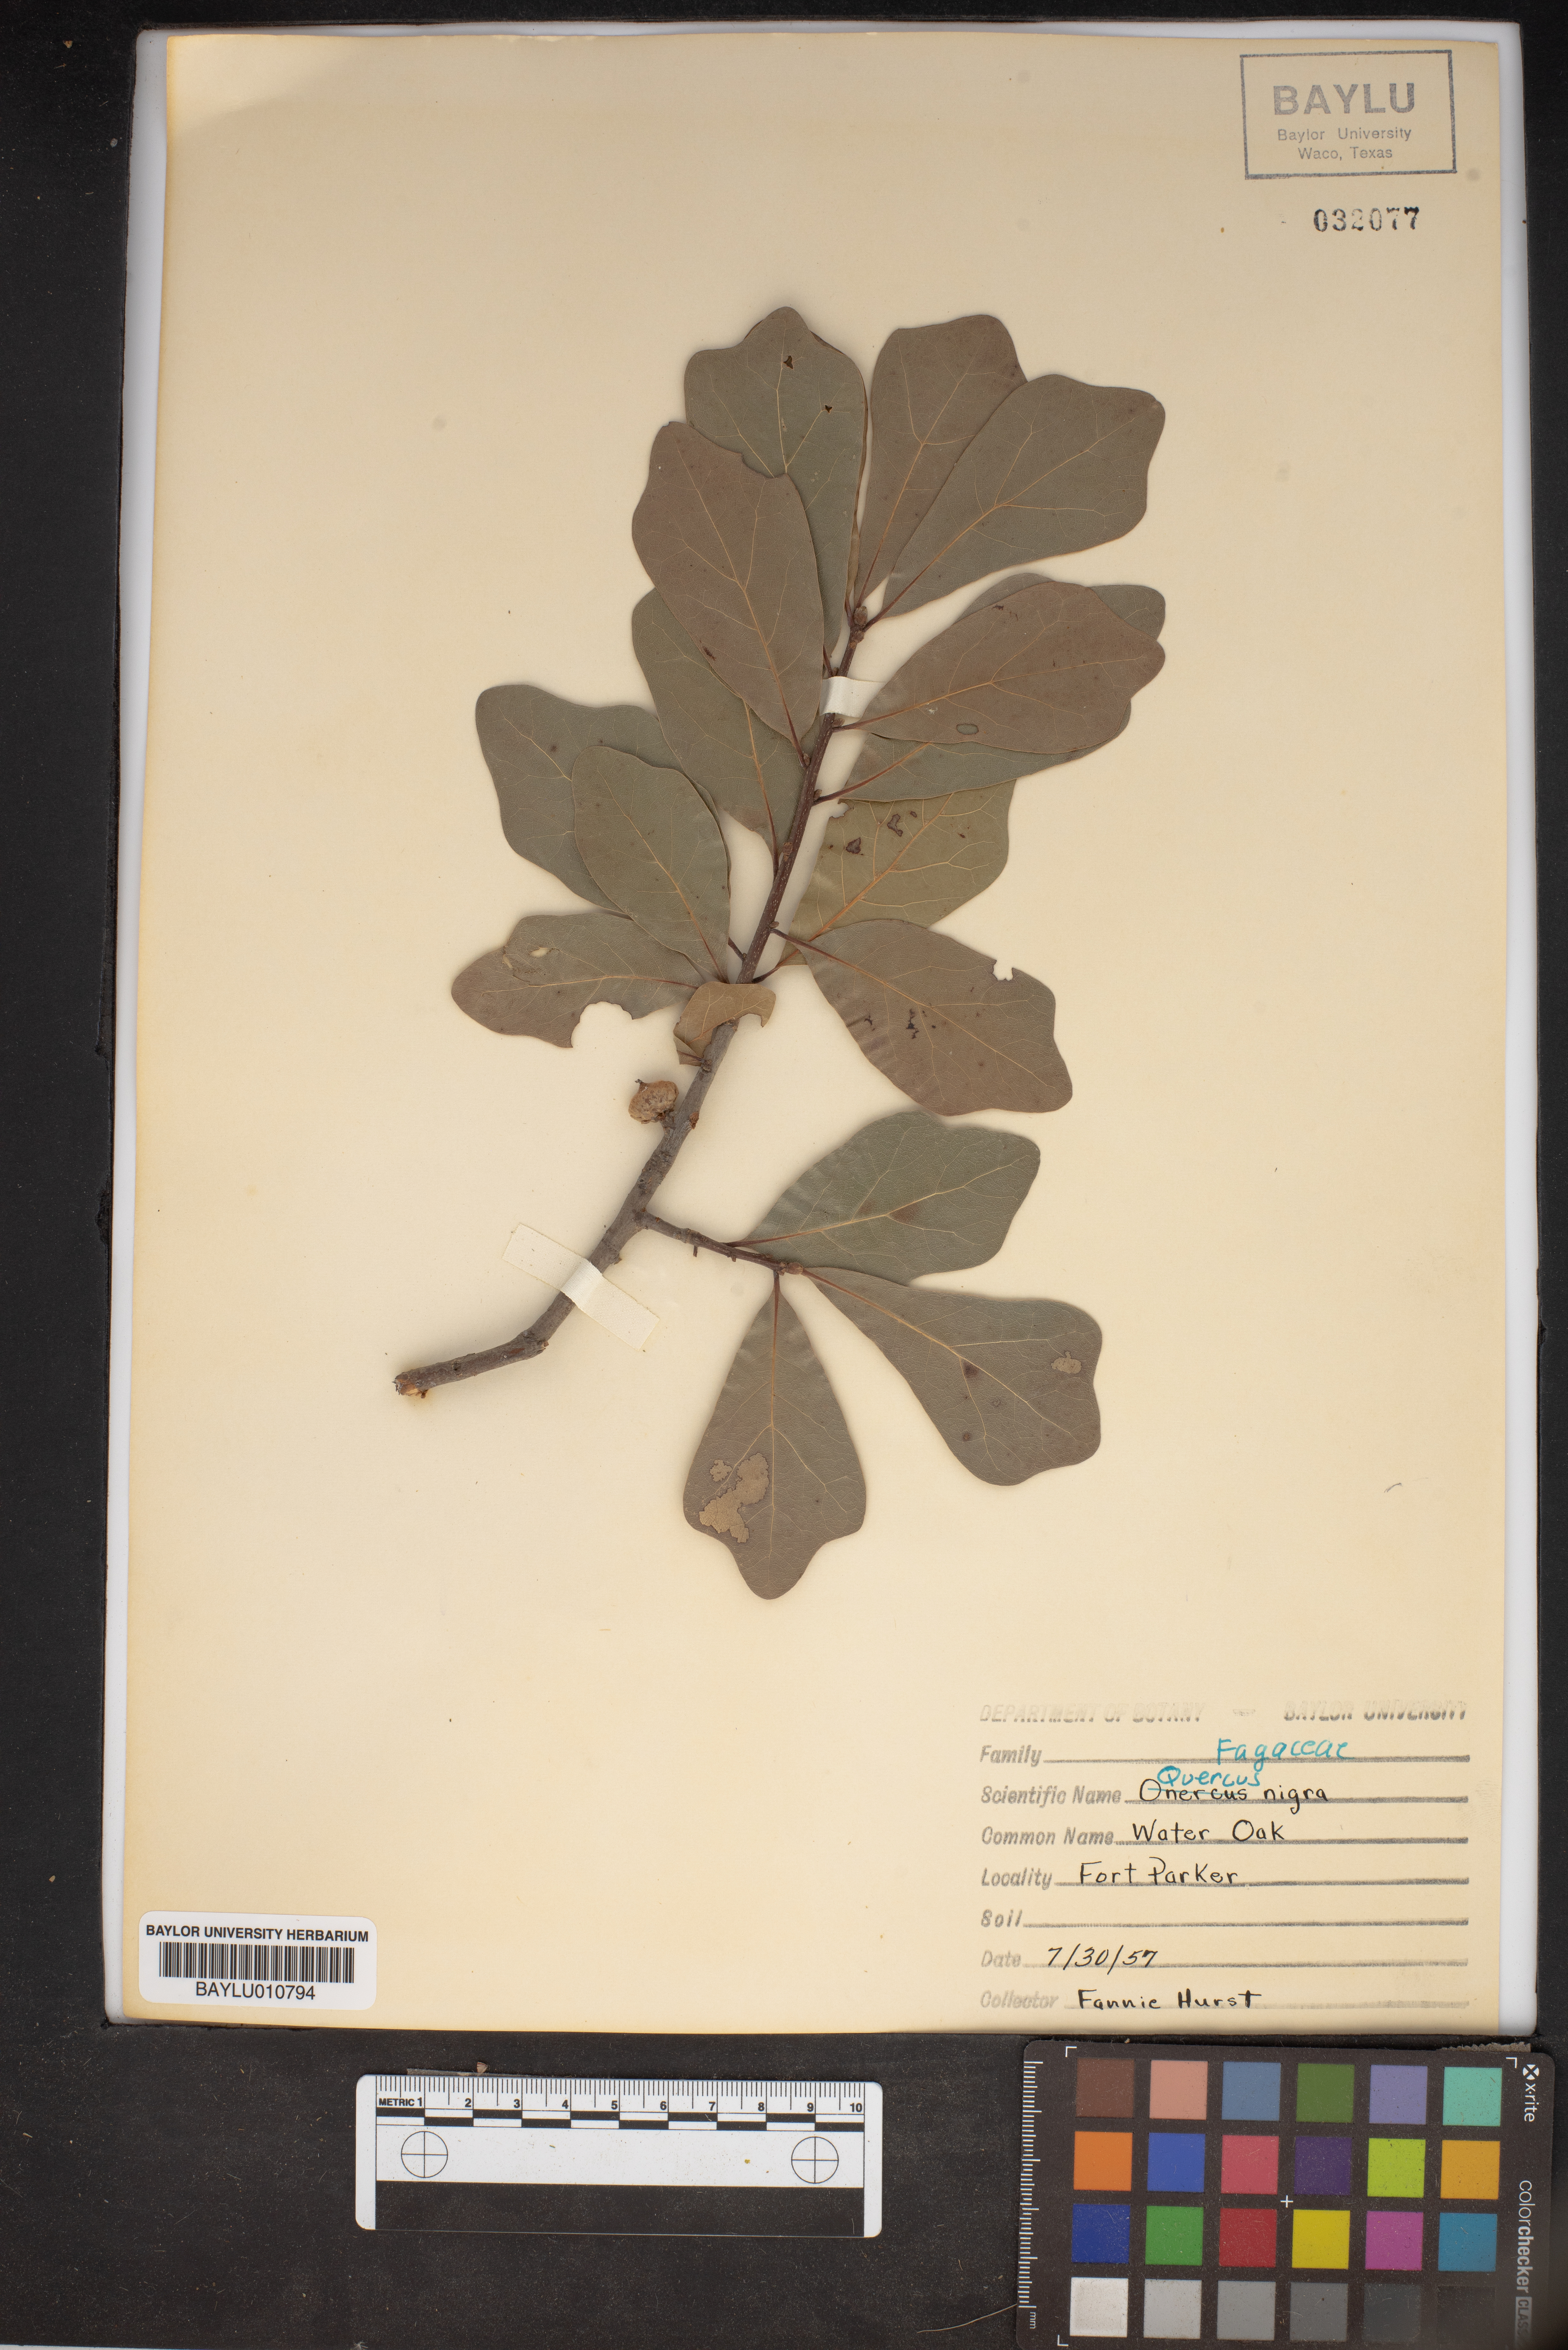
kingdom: Plantae
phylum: Tracheophyta
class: Magnoliopsida
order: Fagales
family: Fagaceae
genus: Quercus
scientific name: Quercus nigra
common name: Water oak
